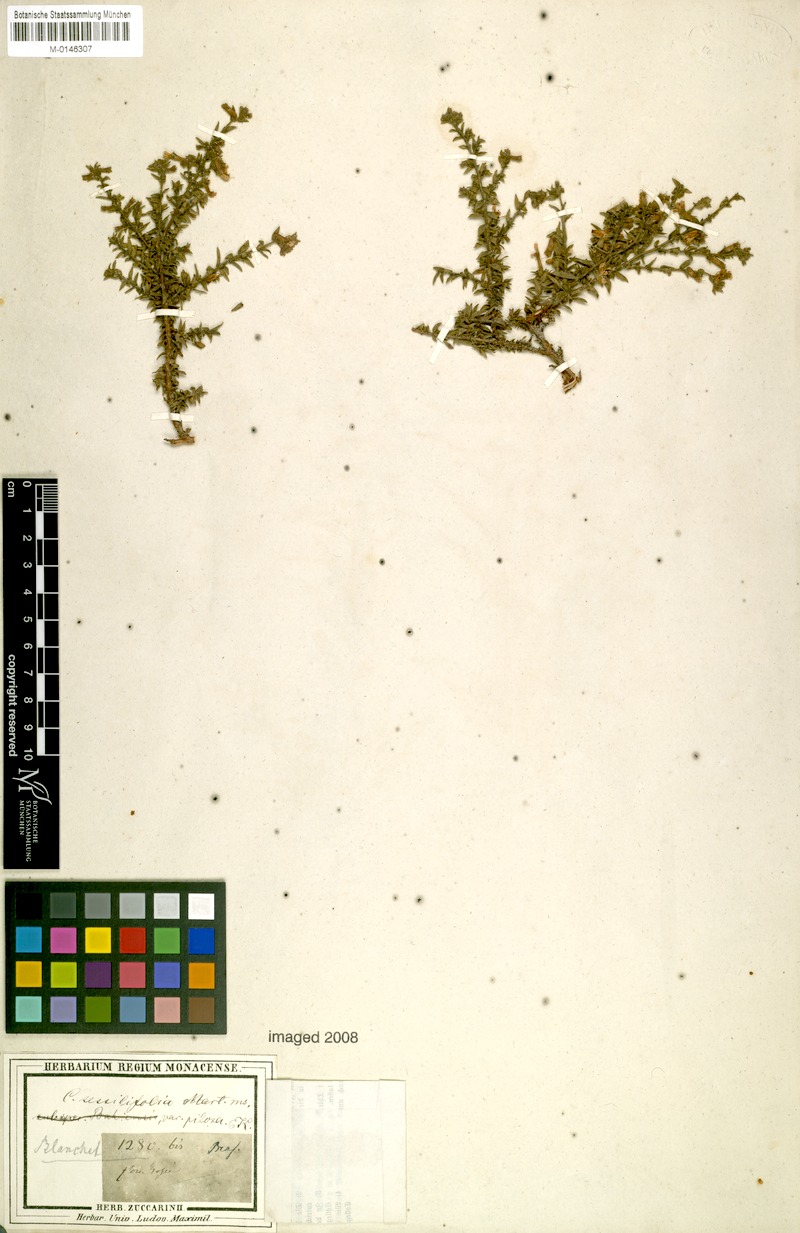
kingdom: Plantae
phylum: Tracheophyta
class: Magnoliopsida
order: Myrtales
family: Lythraceae
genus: Cuphea
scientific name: Cuphea sessilifolia
